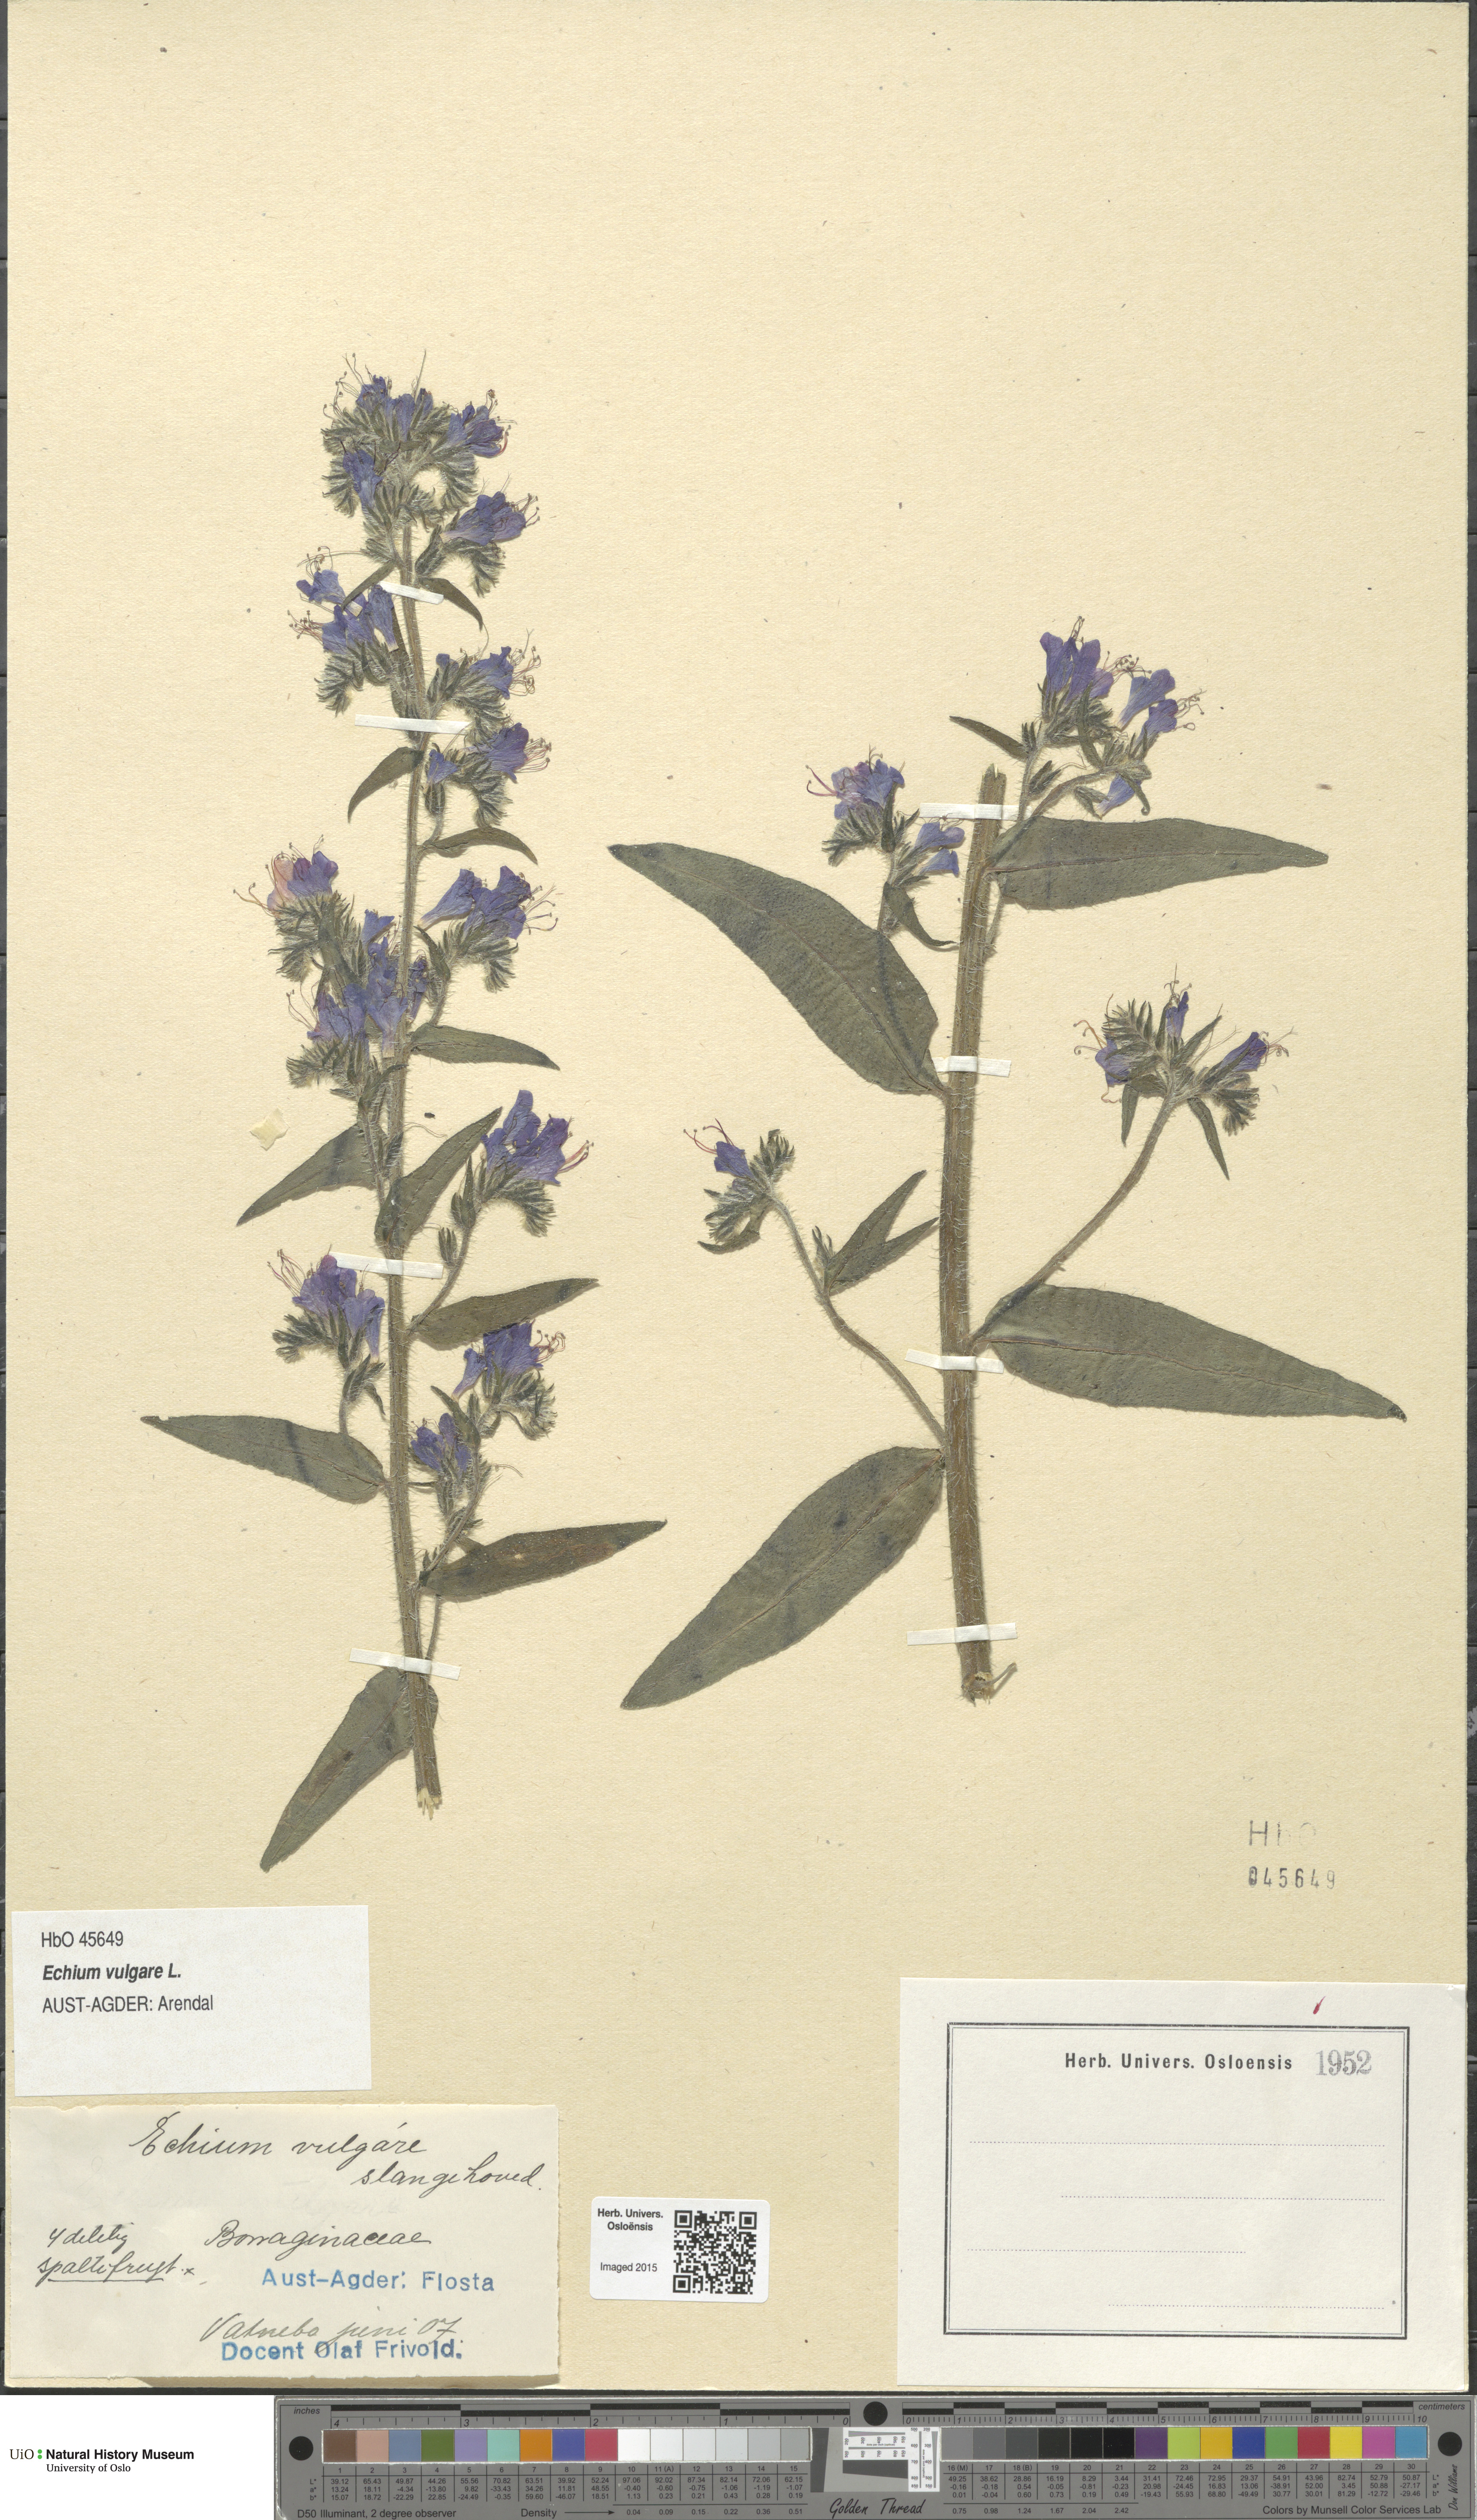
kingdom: Plantae
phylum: Tracheophyta
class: Magnoliopsida
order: Boraginales
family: Boraginaceae
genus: Echium
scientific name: Echium vulgare
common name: Common viper's bugloss
